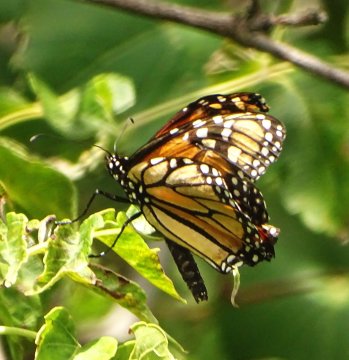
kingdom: Animalia
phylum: Arthropoda
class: Insecta
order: Lepidoptera
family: Nymphalidae
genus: Danaus
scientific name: Danaus plexippus
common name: Monarch
